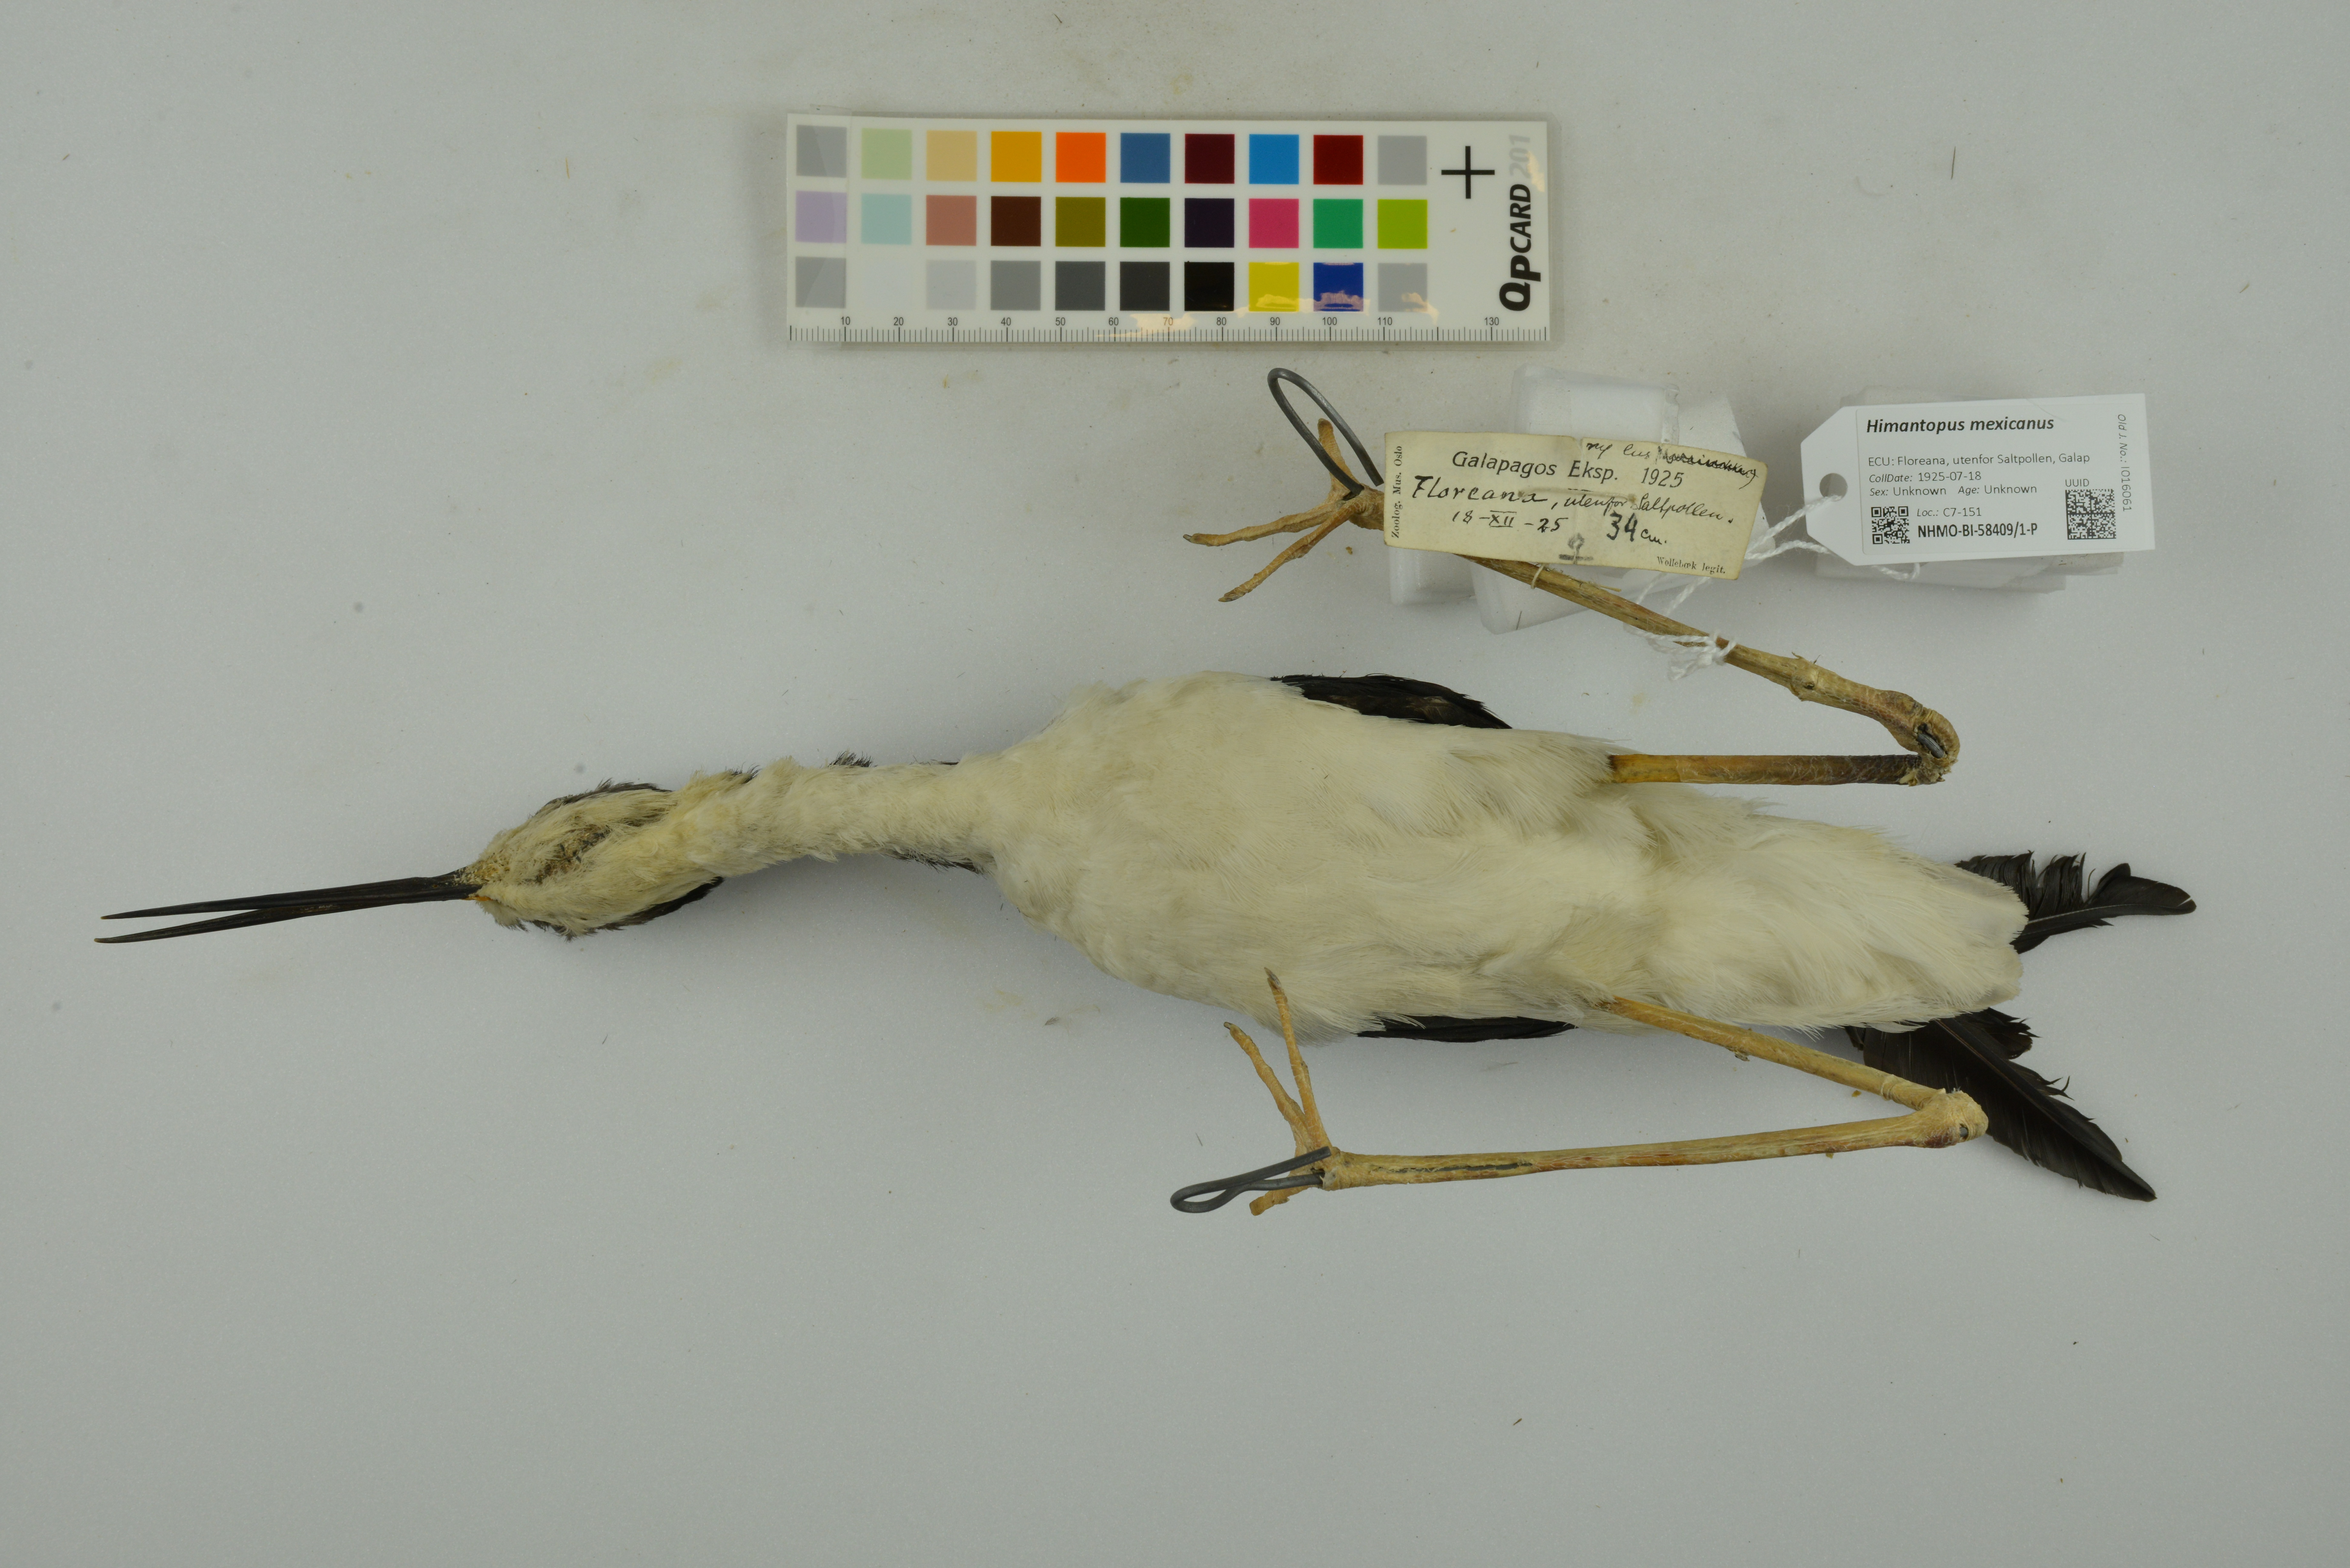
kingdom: Animalia
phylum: Chordata
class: Aves
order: Charadriiformes
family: Recurvirostridae
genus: Himantopus
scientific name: Himantopus mexicanus
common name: Black-necked stilt
